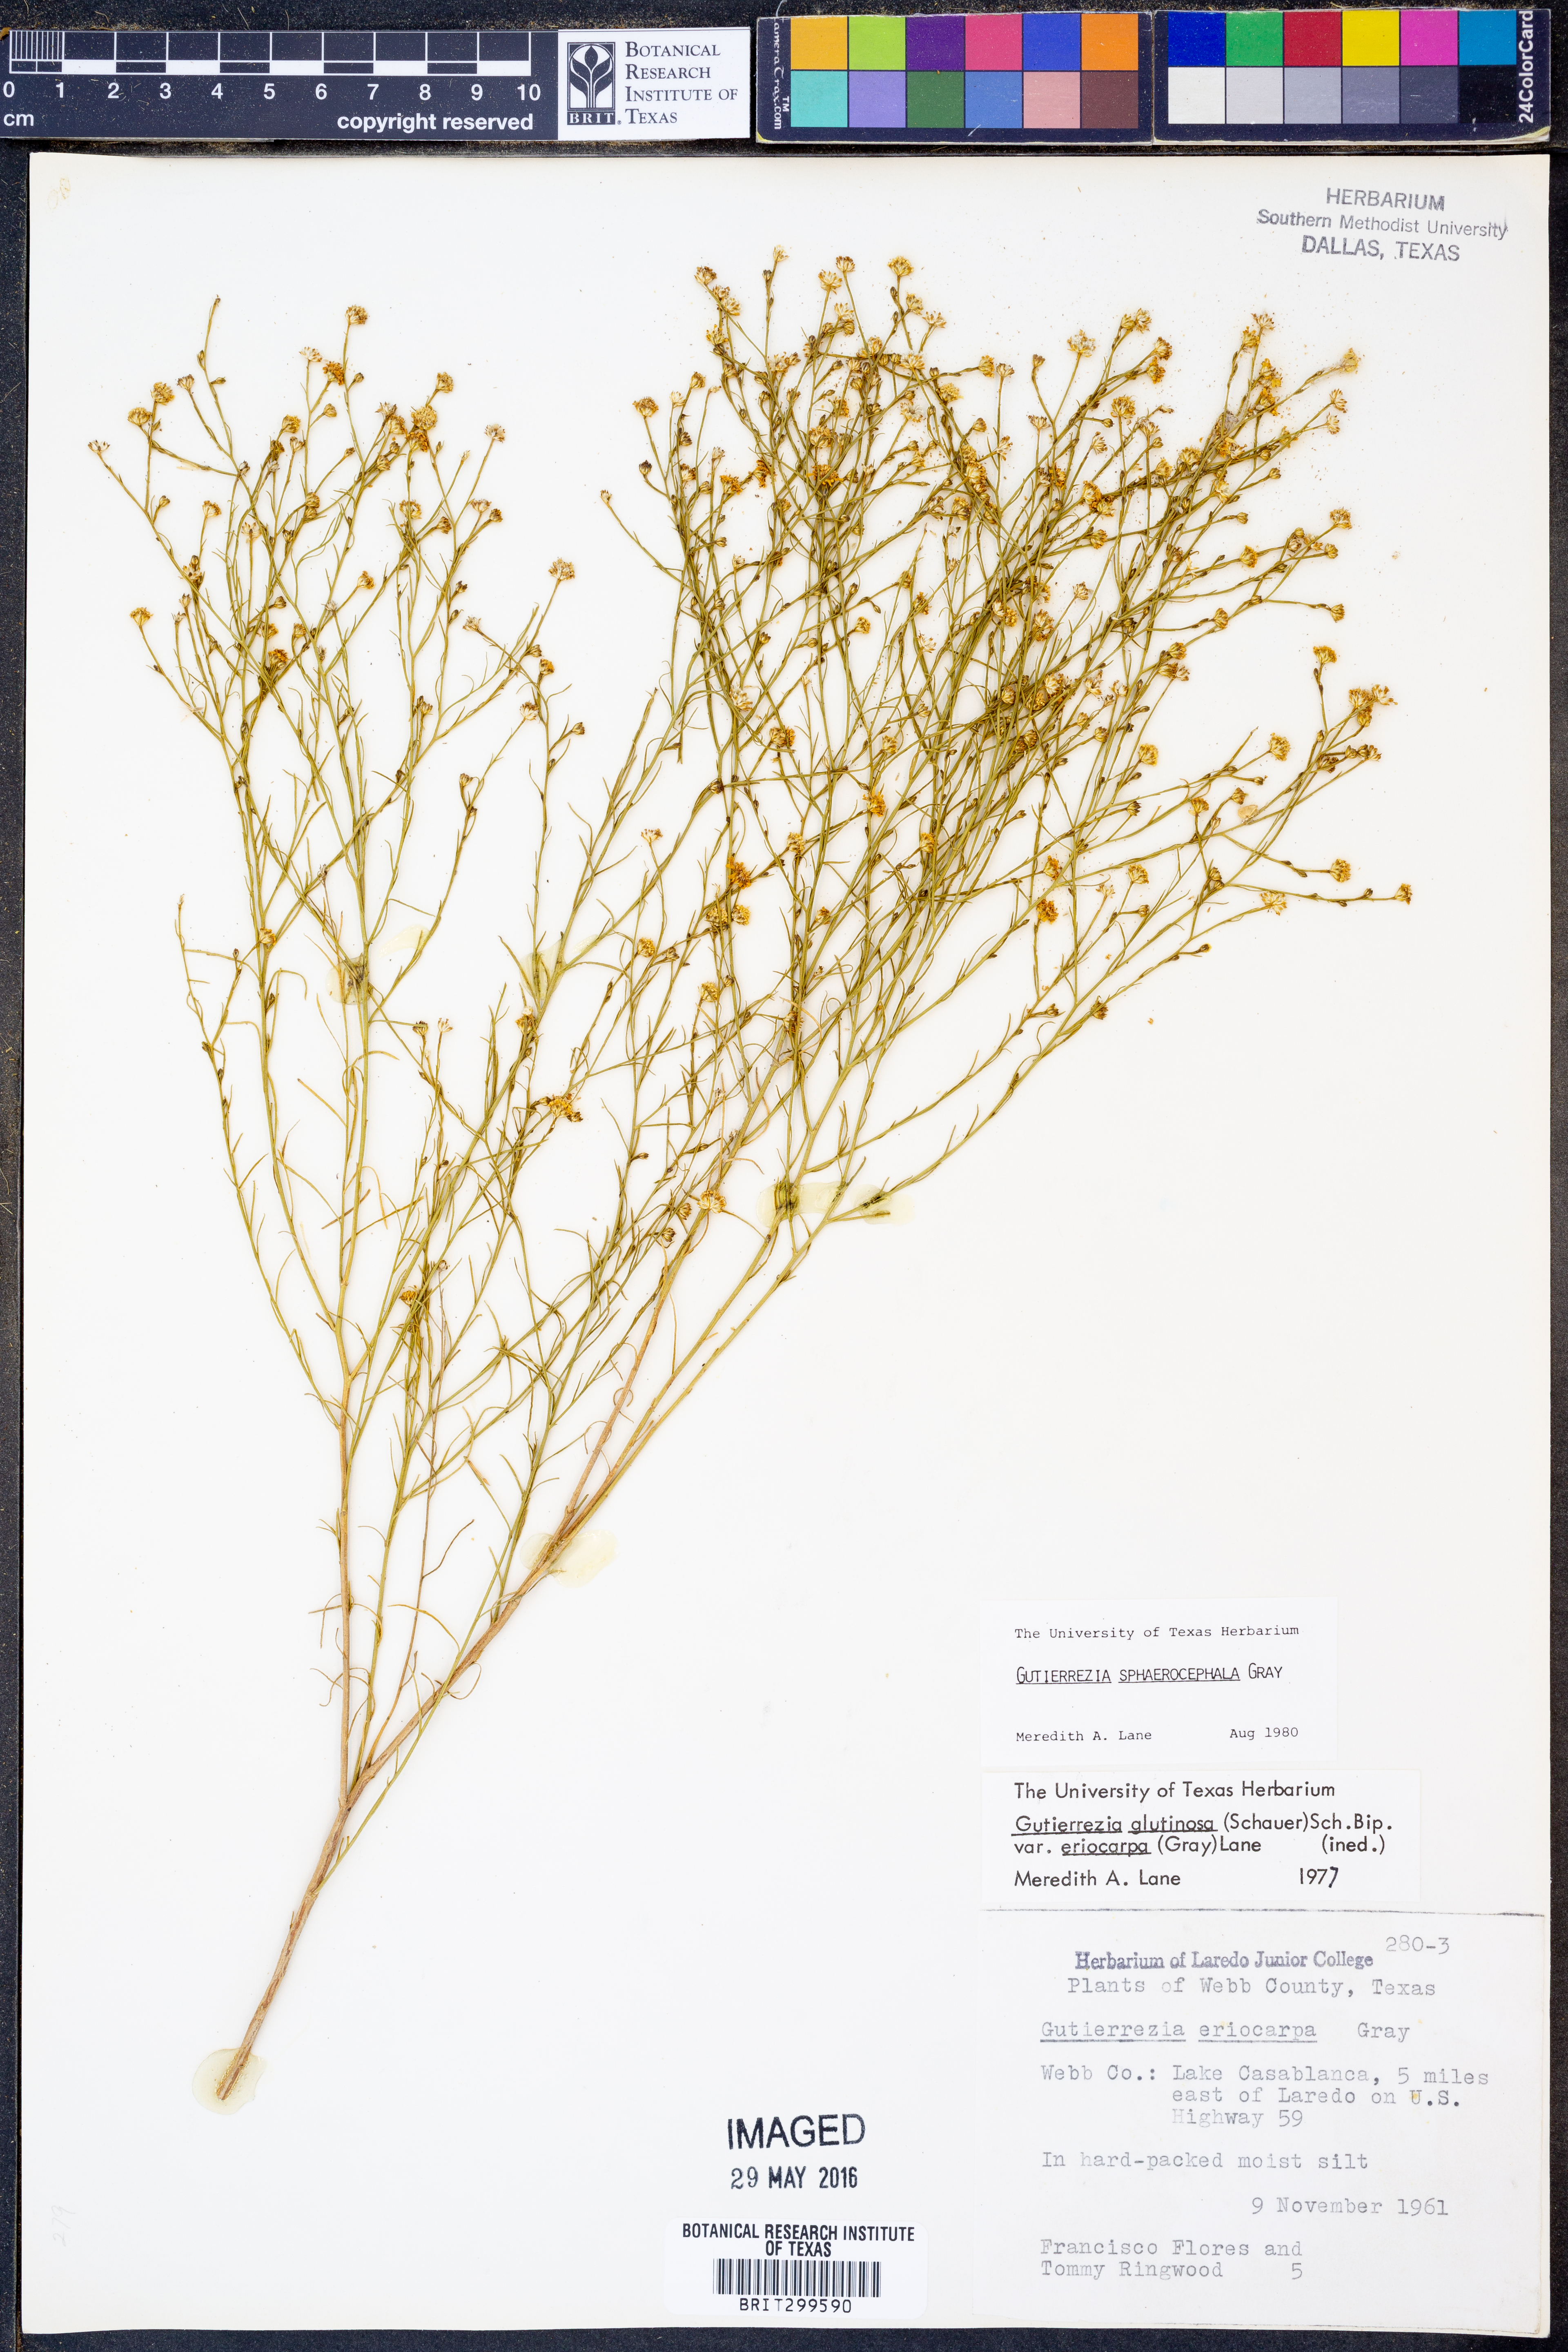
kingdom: Plantae
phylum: Tracheophyta
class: Magnoliopsida
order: Asterales
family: Asteraceae
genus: Gutierrezia
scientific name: Gutierrezia sphaerocephala
